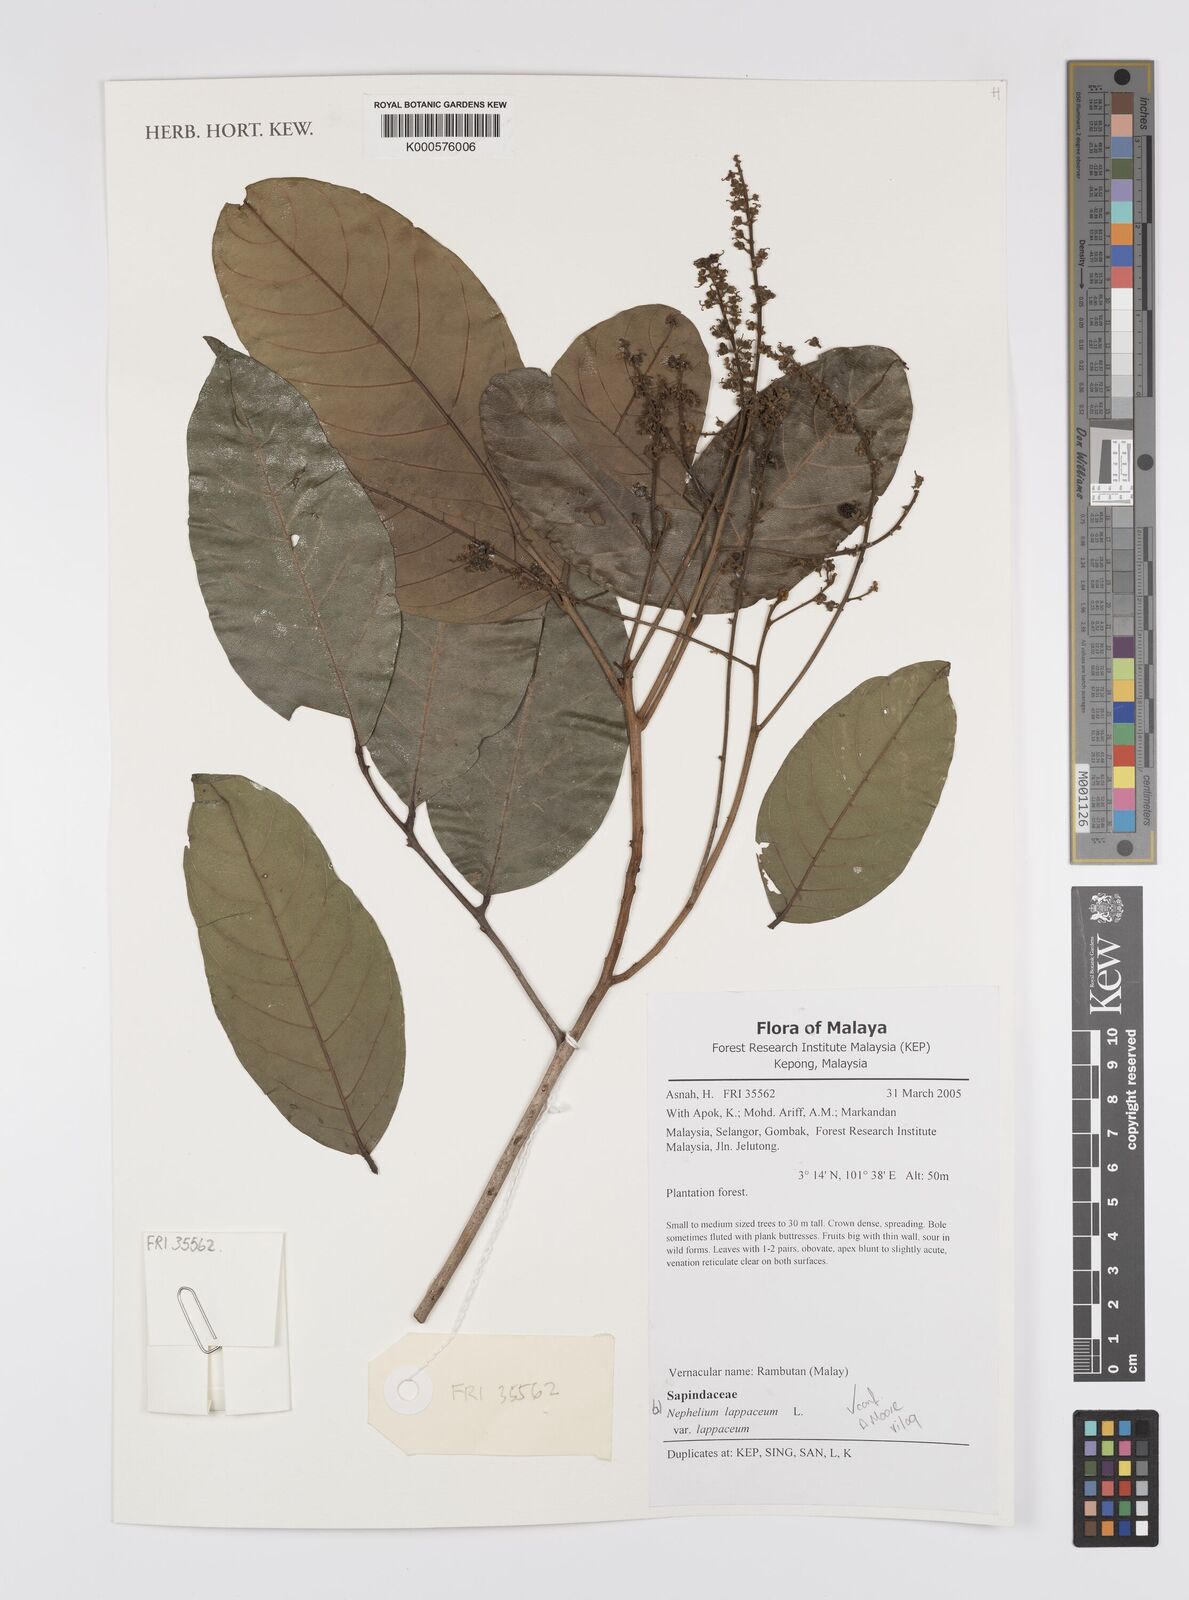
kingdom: Plantae
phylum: Tracheophyta
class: Magnoliopsida
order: Sapindales
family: Sapindaceae
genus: Nephelium
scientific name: Nephelium lappaceum
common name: Rambutan
